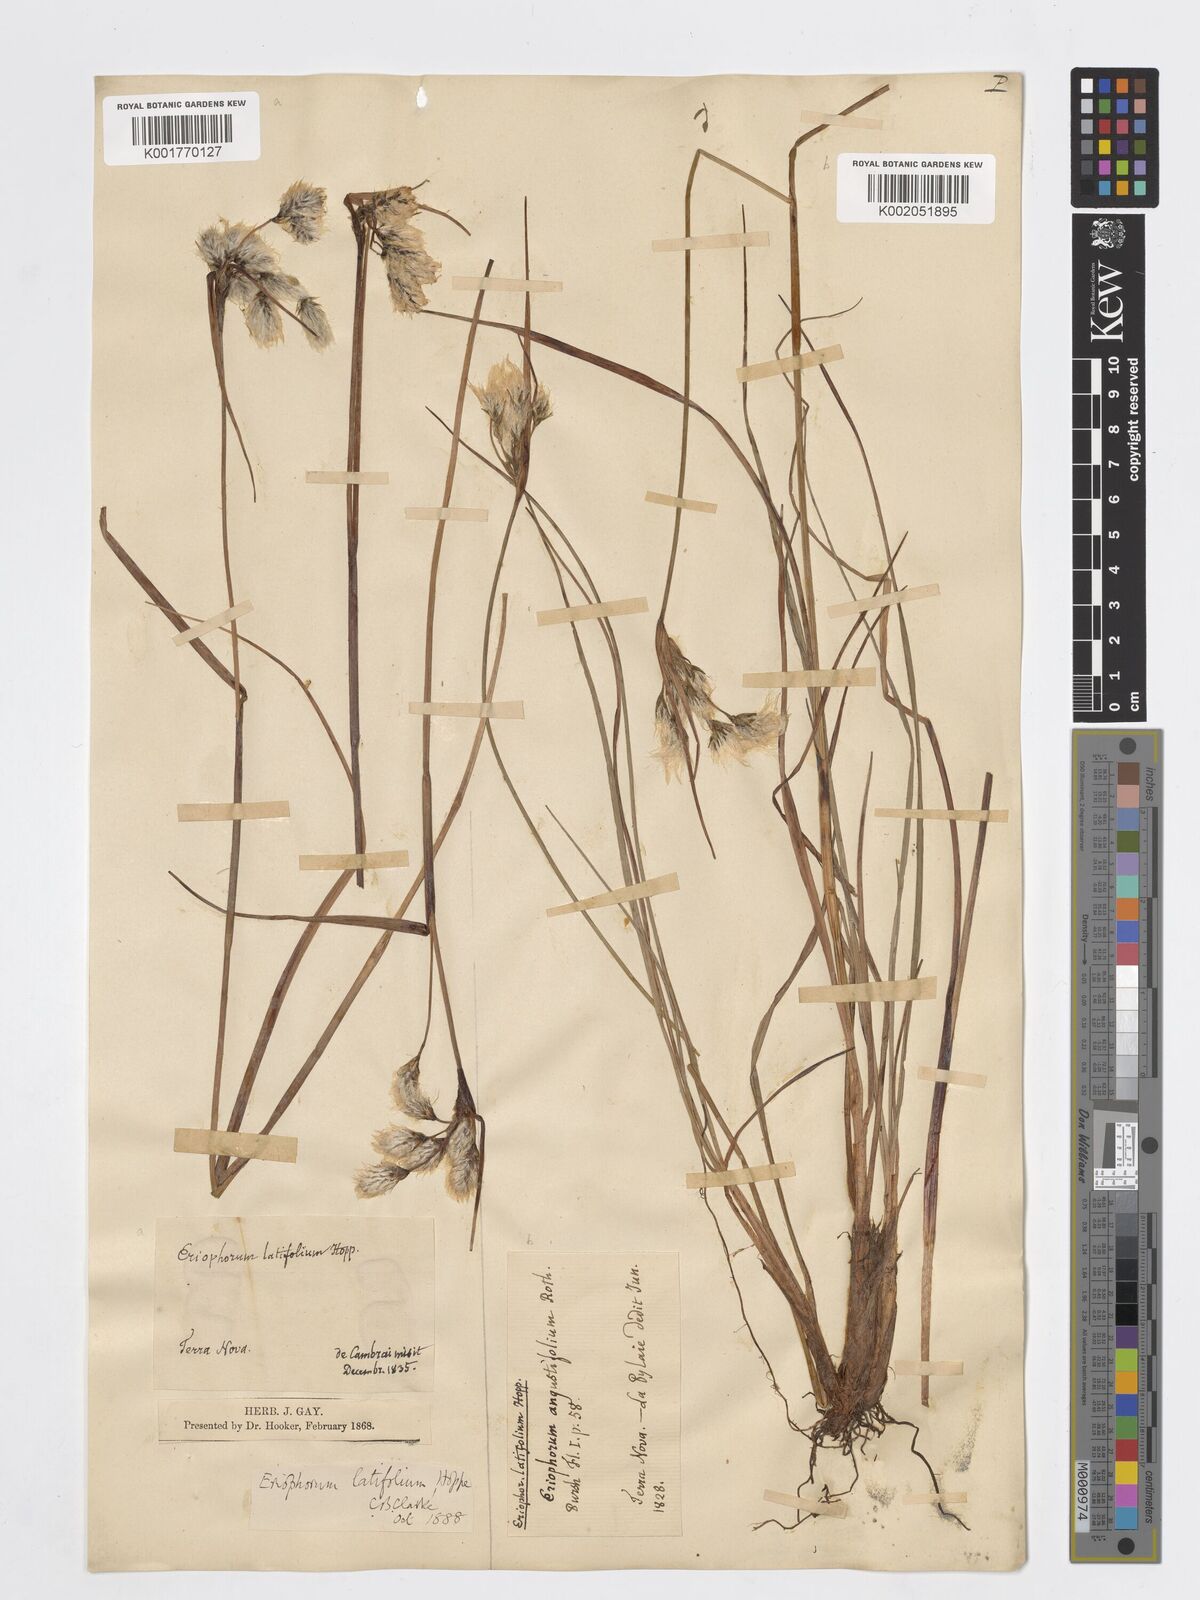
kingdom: Plantae
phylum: Tracheophyta
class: Liliopsida
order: Poales
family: Cyperaceae
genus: Eriophorum
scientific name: Eriophorum latifolium
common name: Broad-leaved cottongrass
